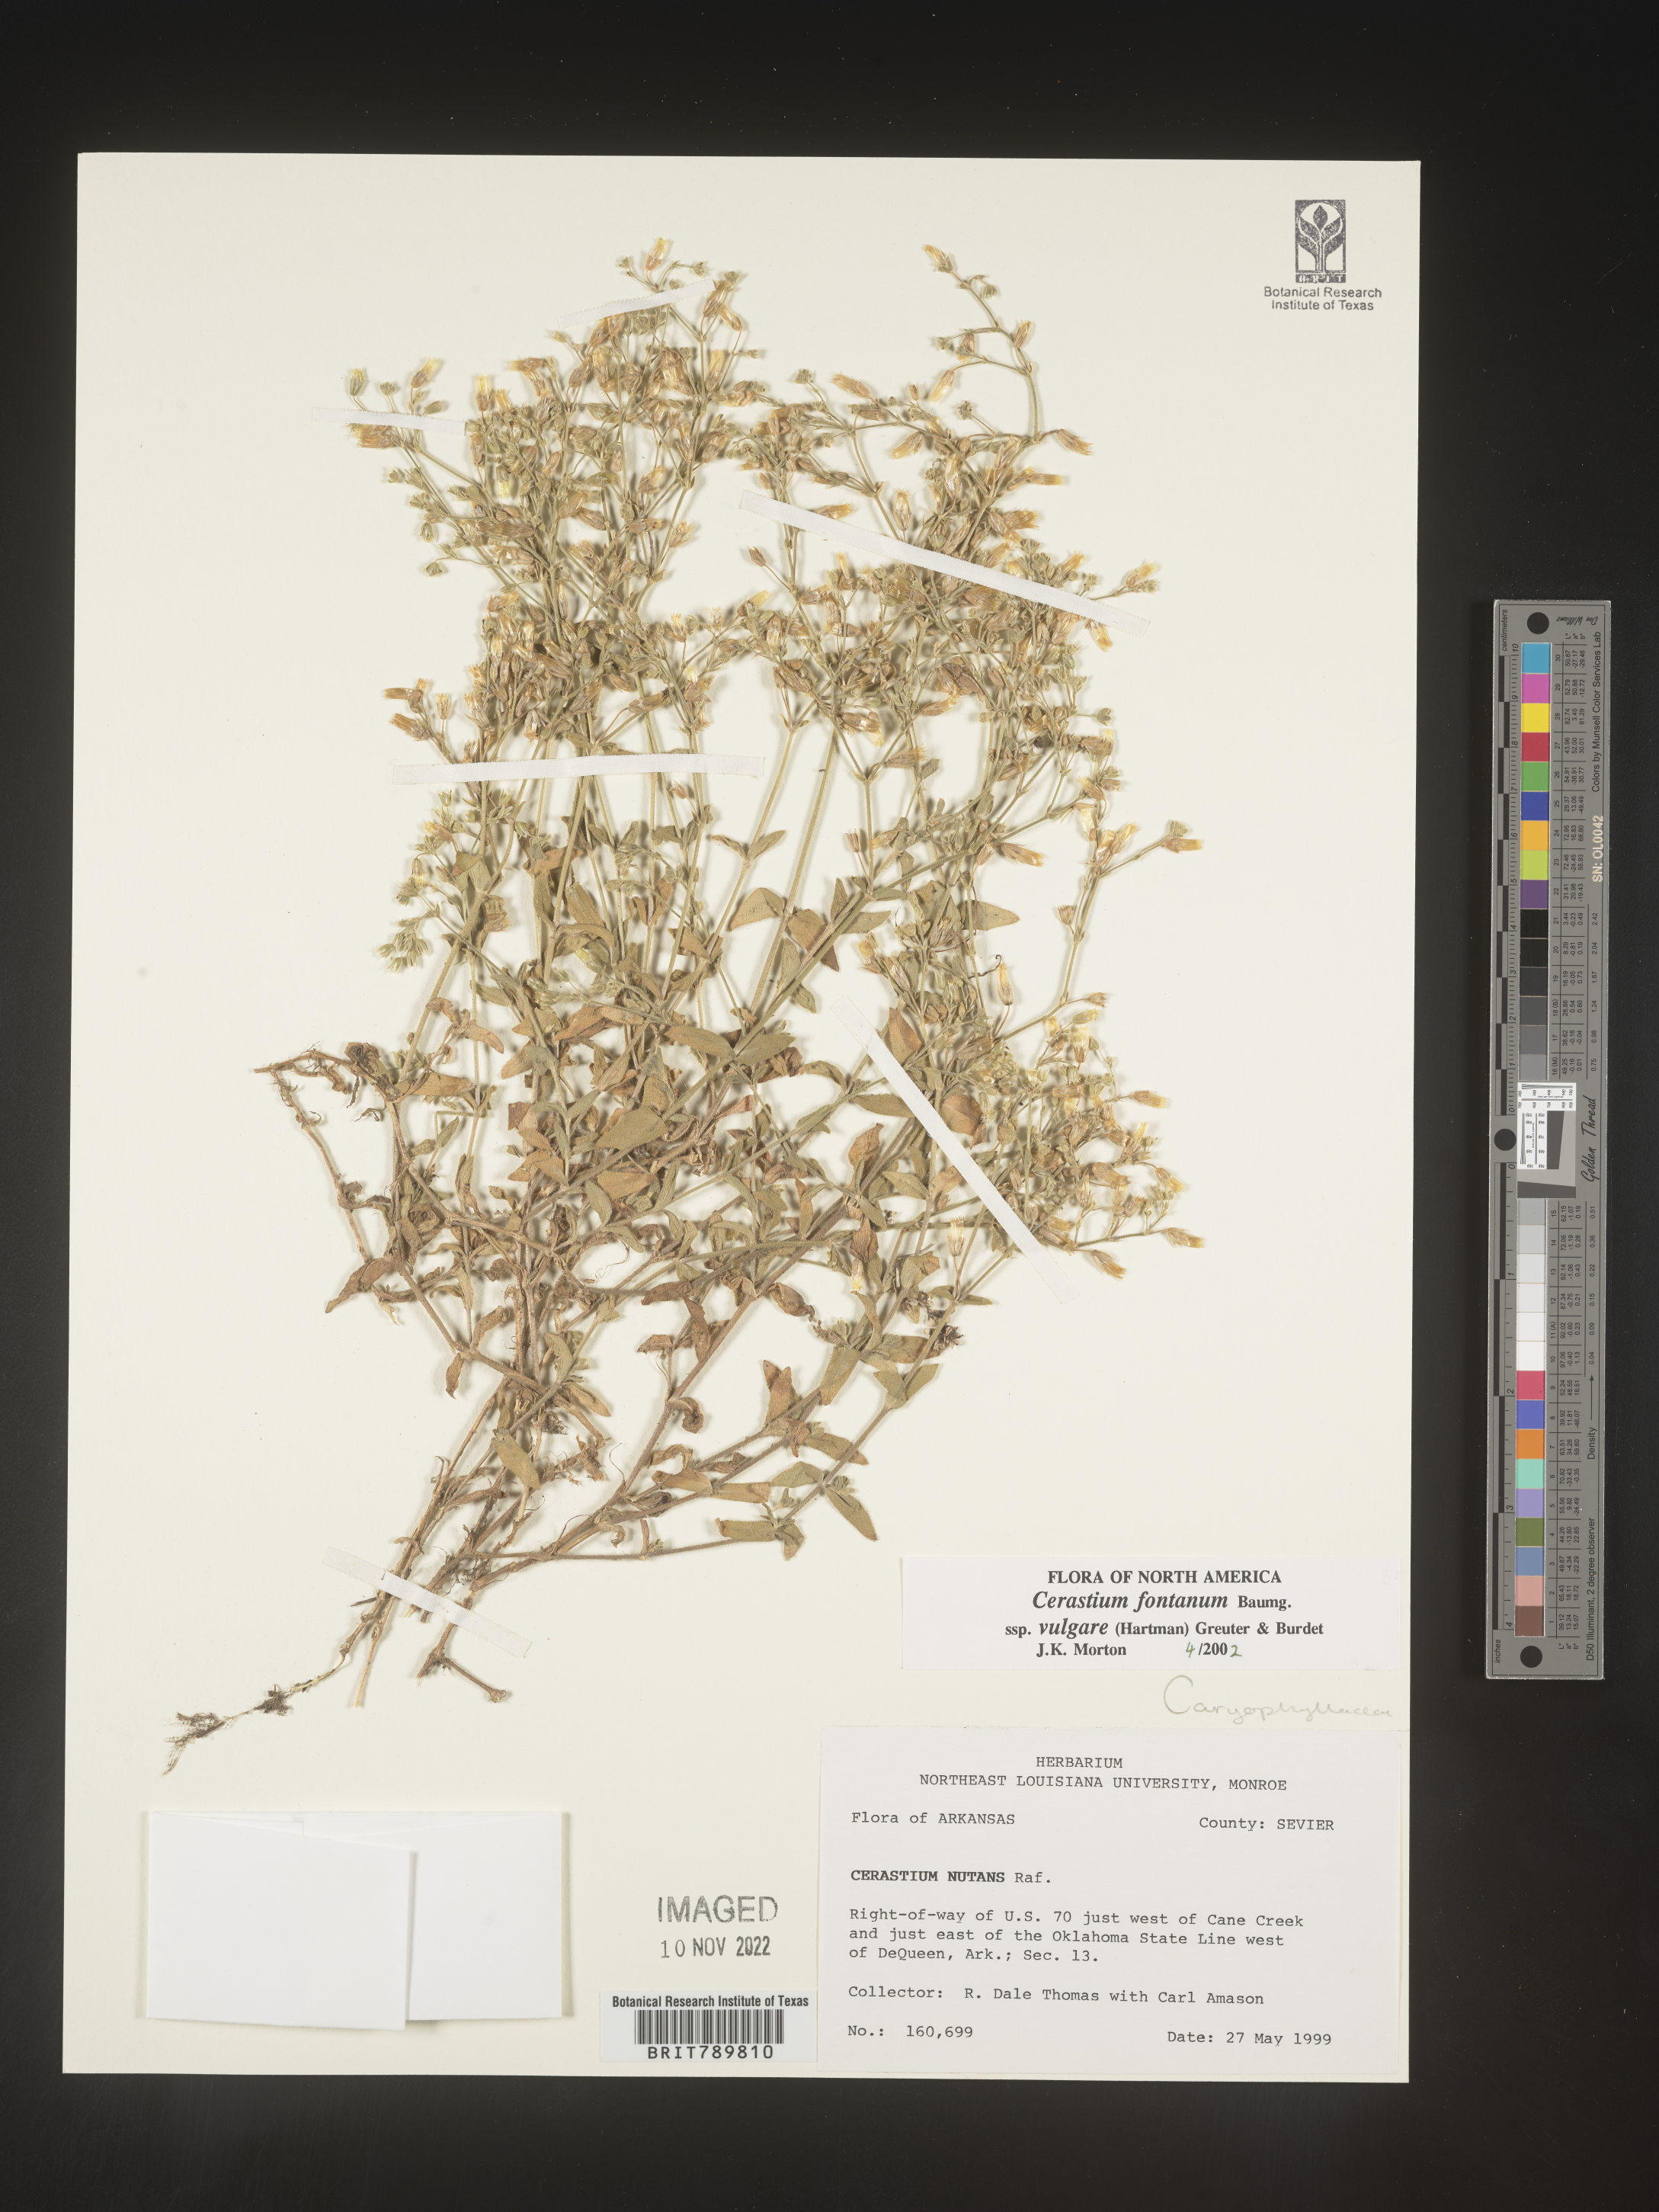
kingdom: Plantae
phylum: Tracheophyta
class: Magnoliopsida
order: Caryophyllales
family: Caryophyllaceae
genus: Cerastium
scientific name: Cerastium fontanum
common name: Common mouse-ear
